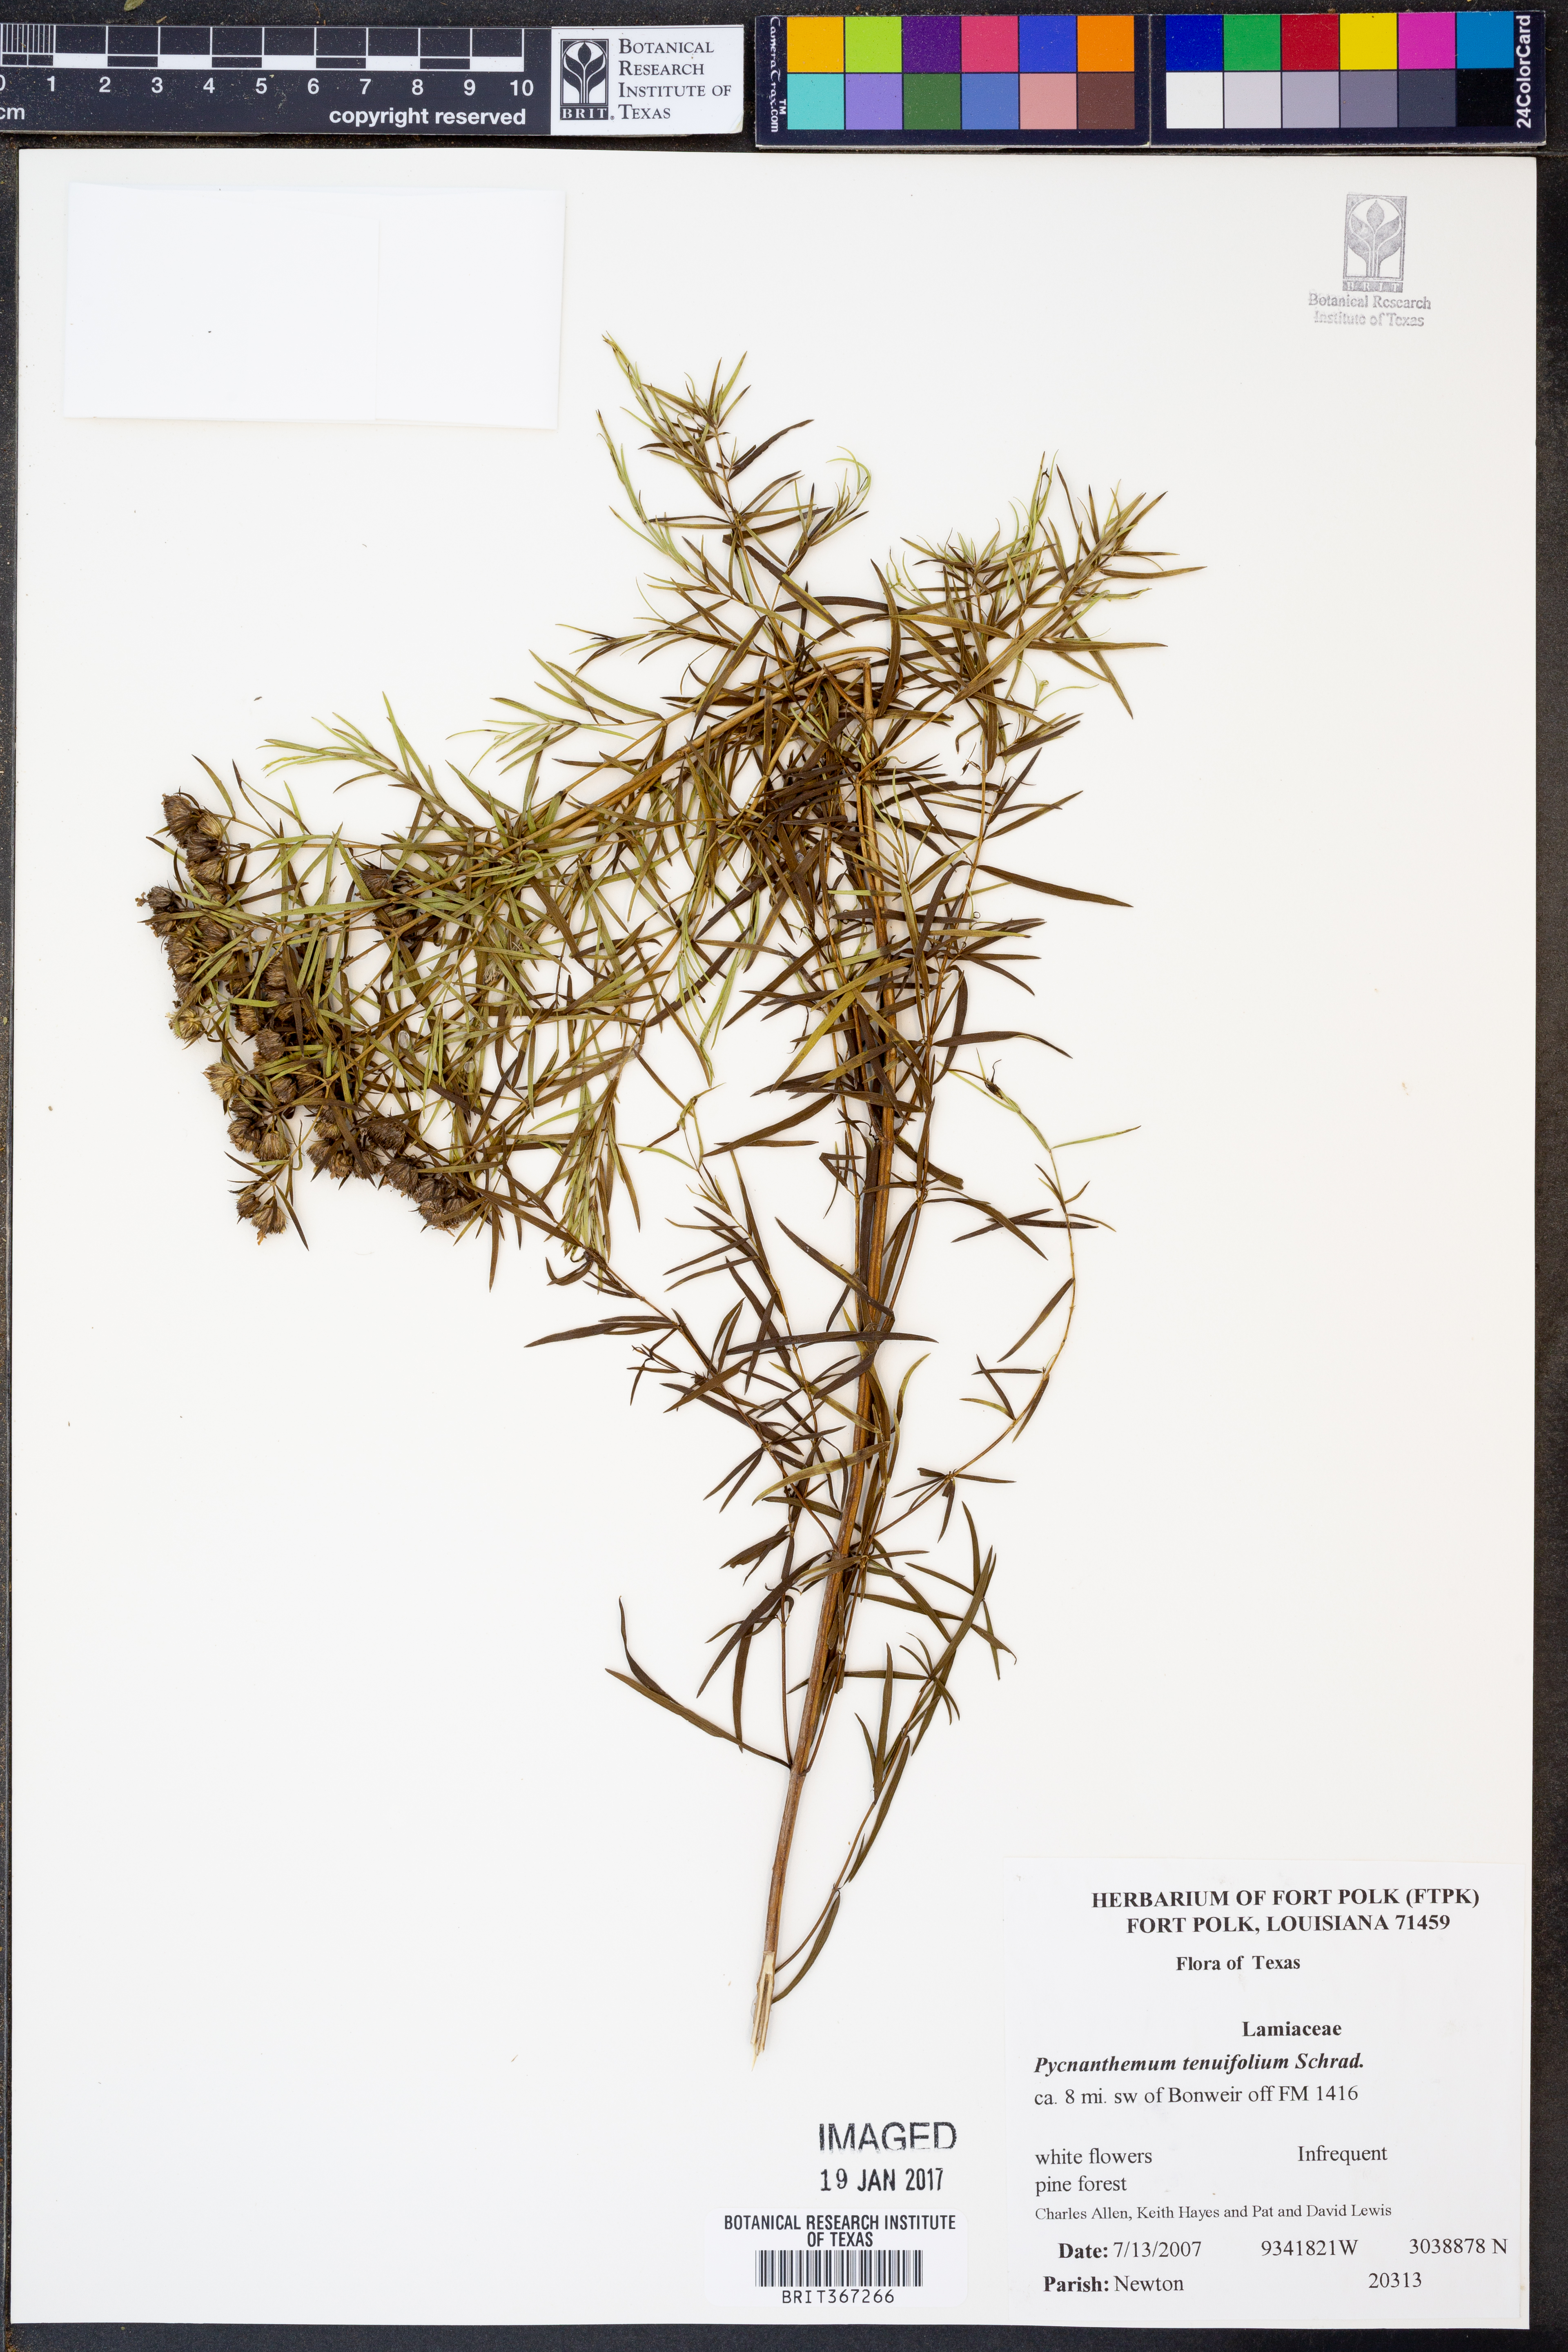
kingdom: Plantae
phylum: Tracheophyta
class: Magnoliopsida
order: Lamiales
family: Lamiaceae
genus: Pycnanthemum
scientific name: Pycnanthemum tenuifolium
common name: Narrow-leaf mountain-mint
